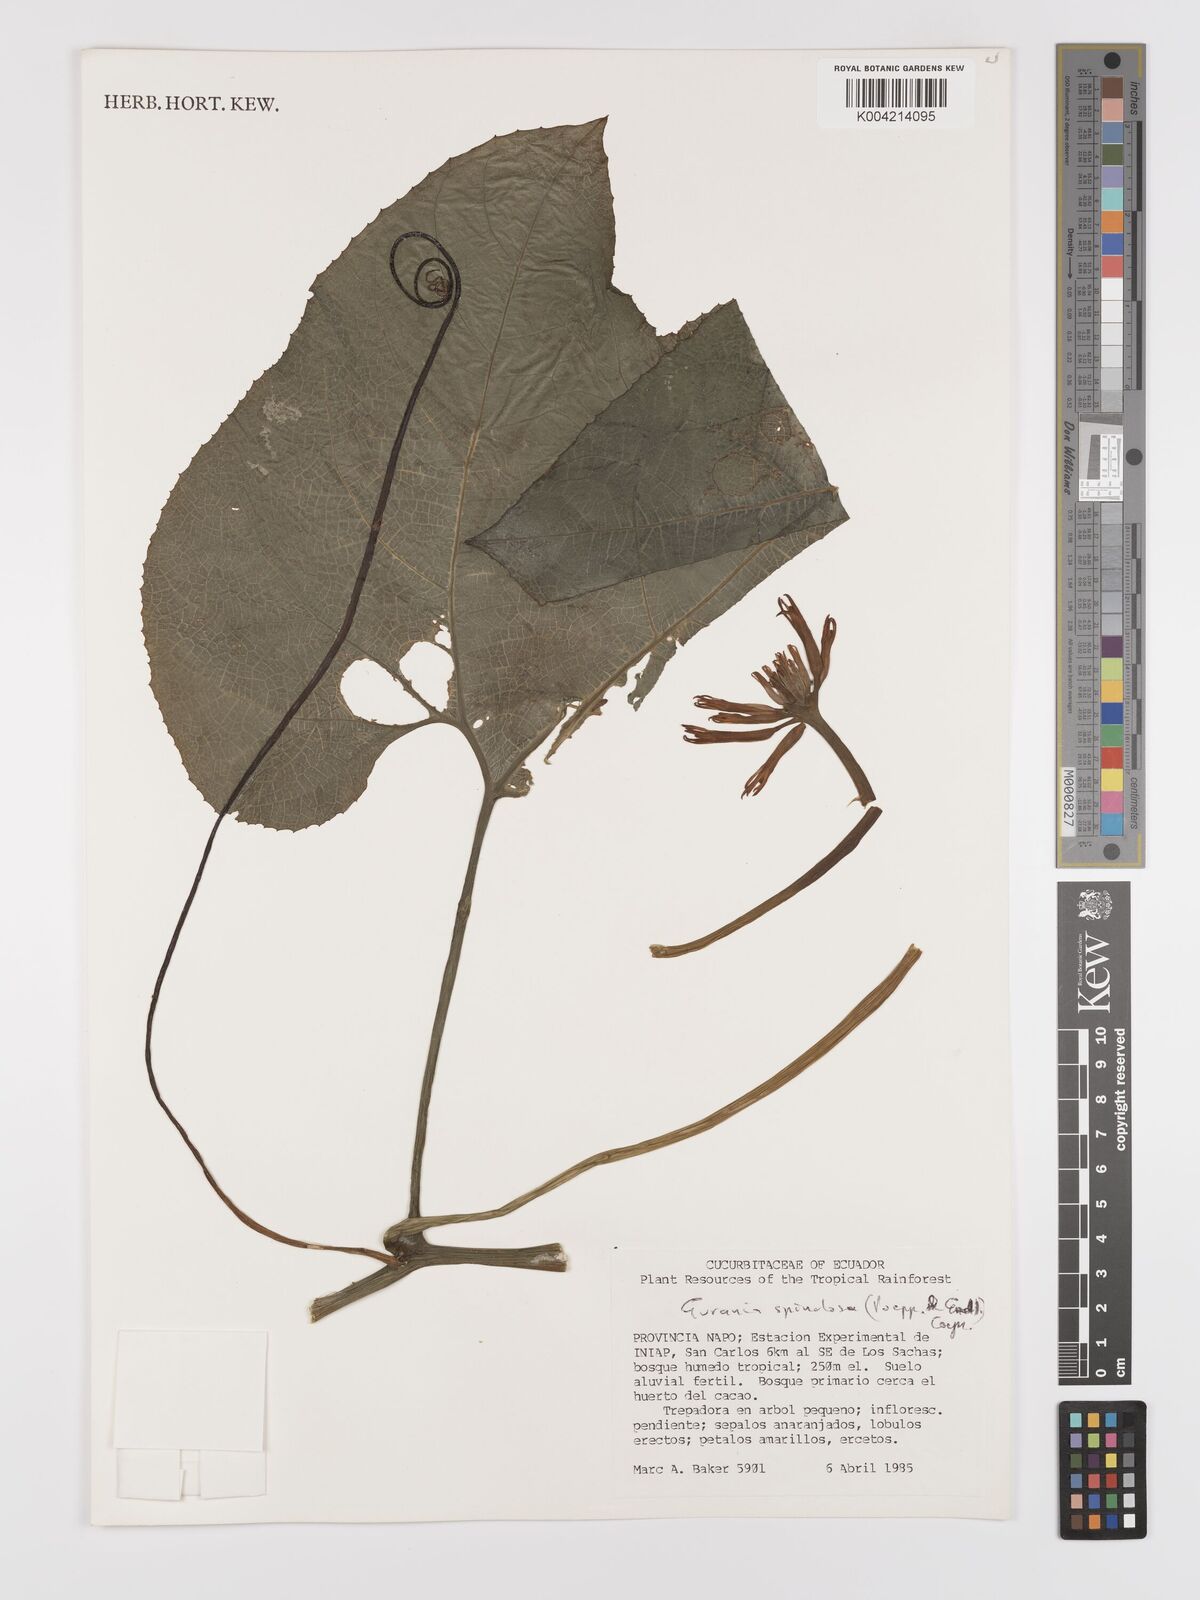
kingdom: Plantae
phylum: Tracheophyta
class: Magnoliopsida
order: Cucurbitales
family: Cucurbitaceae
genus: Gurania
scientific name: Gurania lobata
